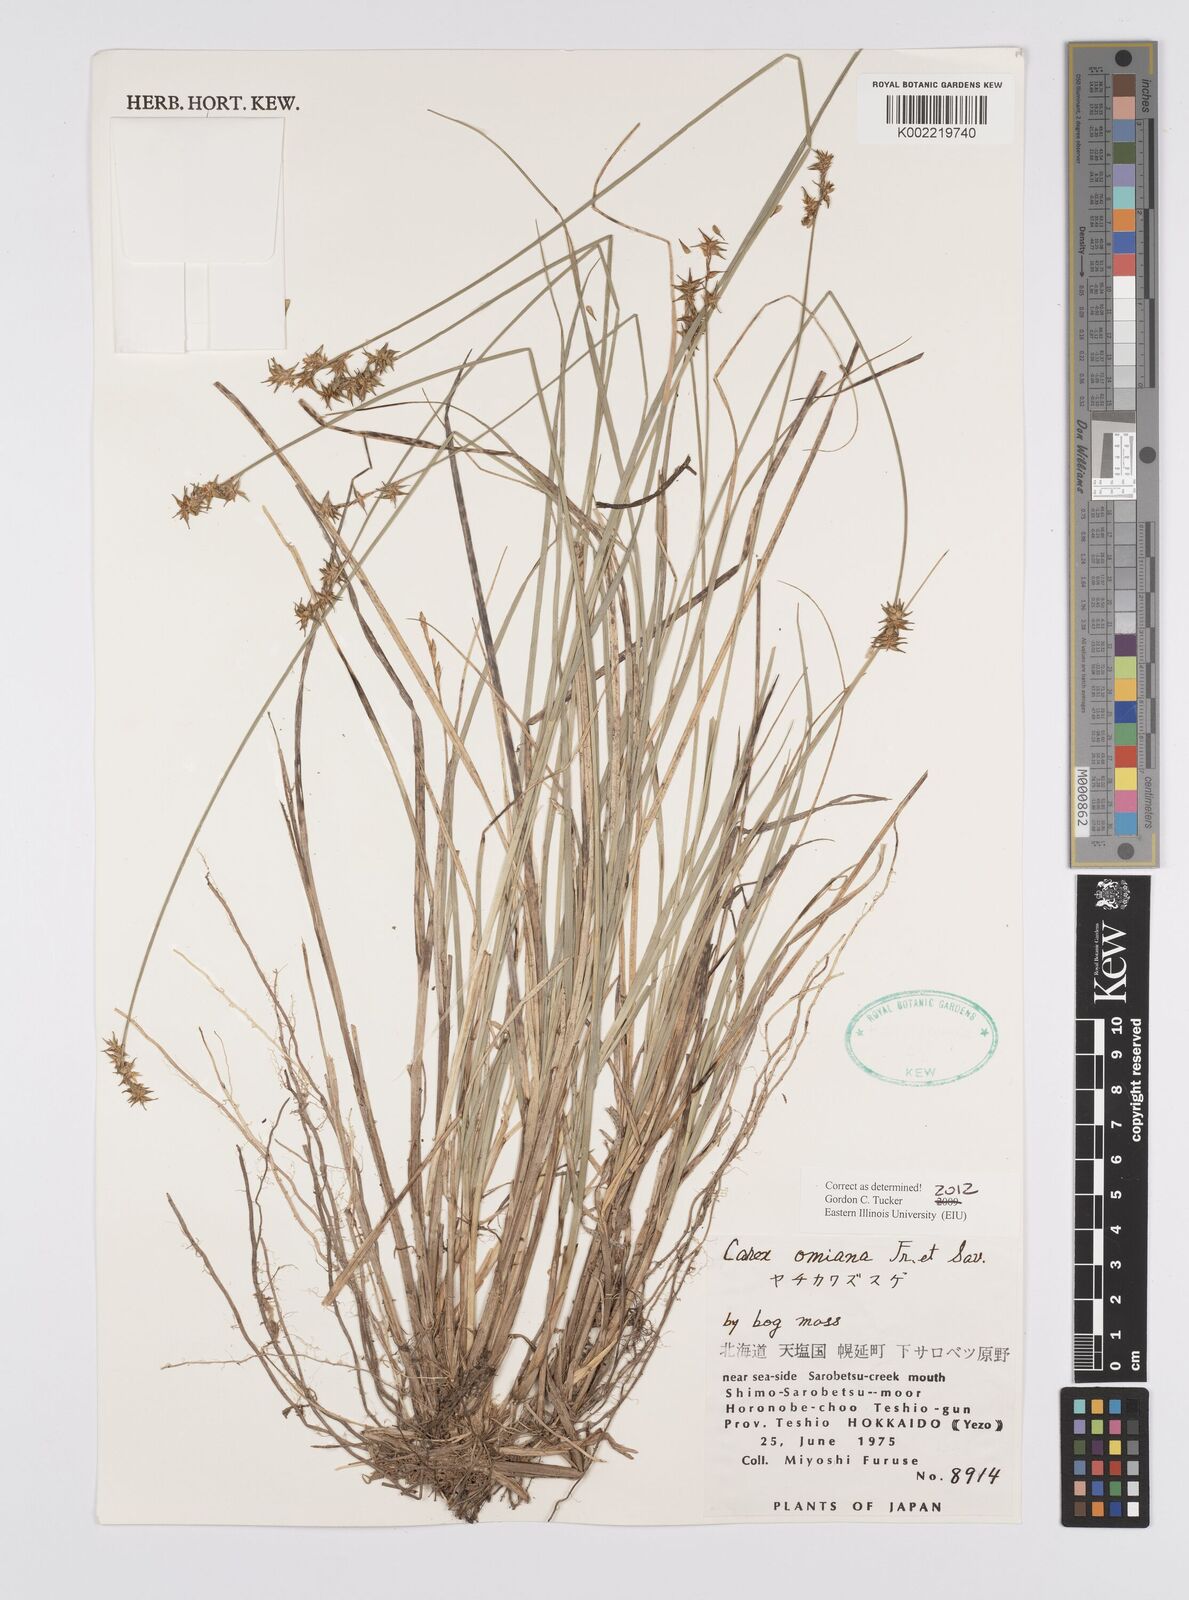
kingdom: Plantae
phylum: Tracheophyta
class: Liliopsida
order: Poales
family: Cyperaceae
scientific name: Cyperaceae
